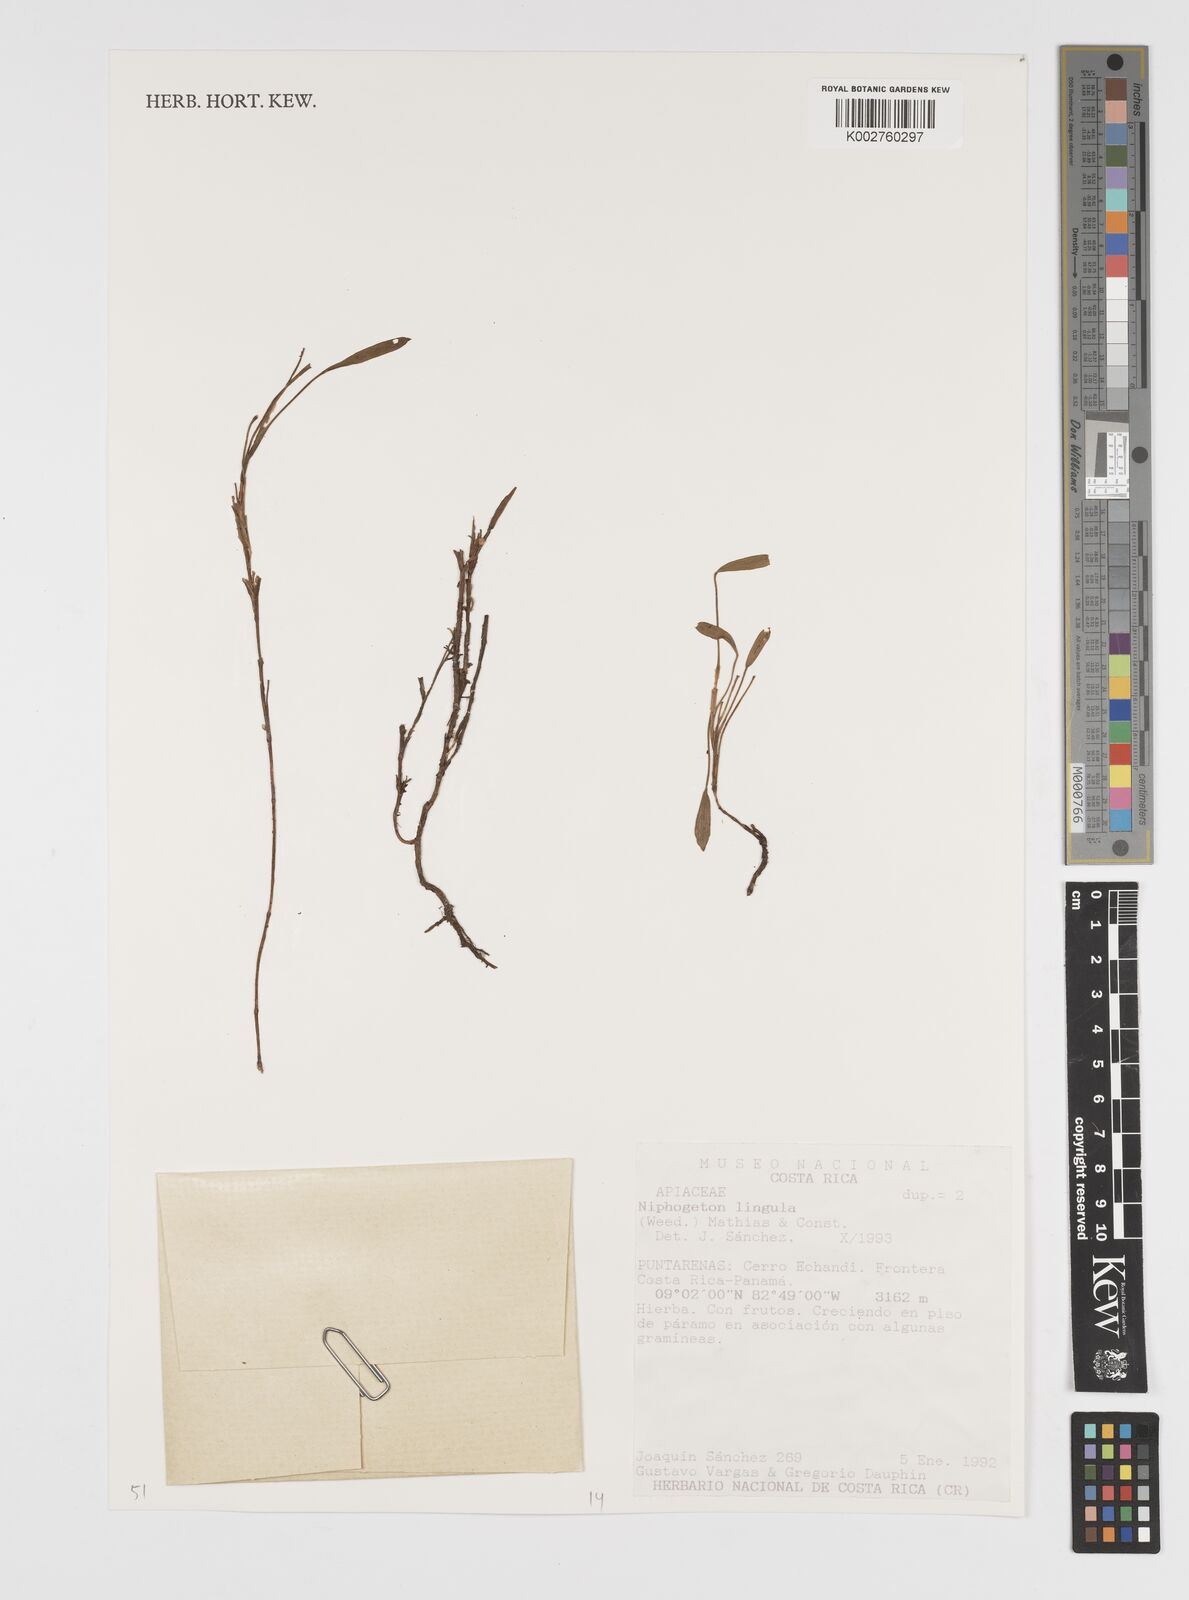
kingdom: Plantae
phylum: Tracheophyta
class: Magnoliopsida
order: Apiales
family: Apiaceae
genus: Niphogeton
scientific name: Niphogeton lingula
